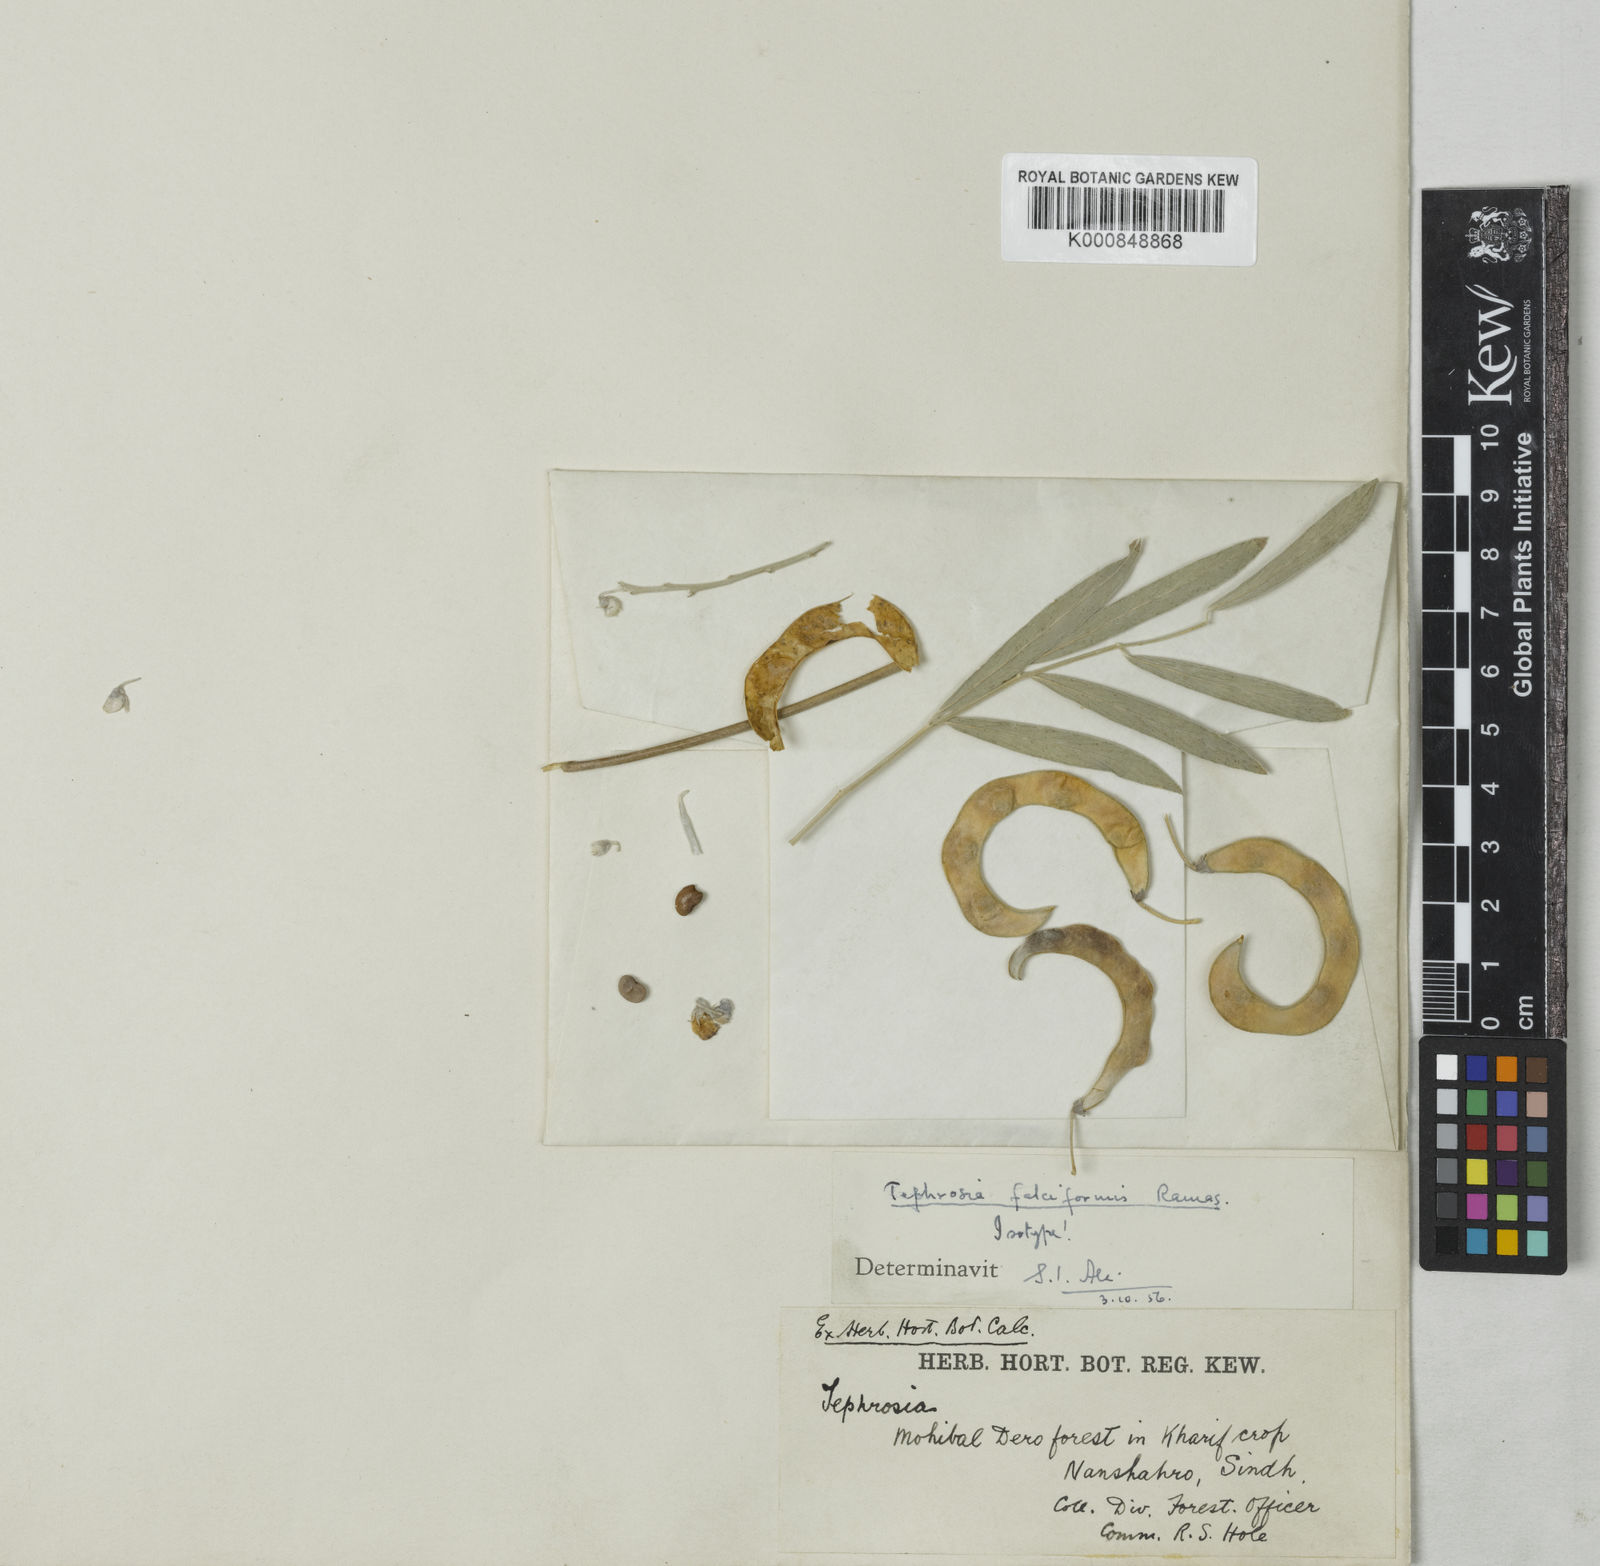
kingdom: Plantae
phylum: Tracheophyta
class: Magnoliopsida
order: Fabales
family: Fabaceae
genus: Tephrosia
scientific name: Tephrosia falciformis
